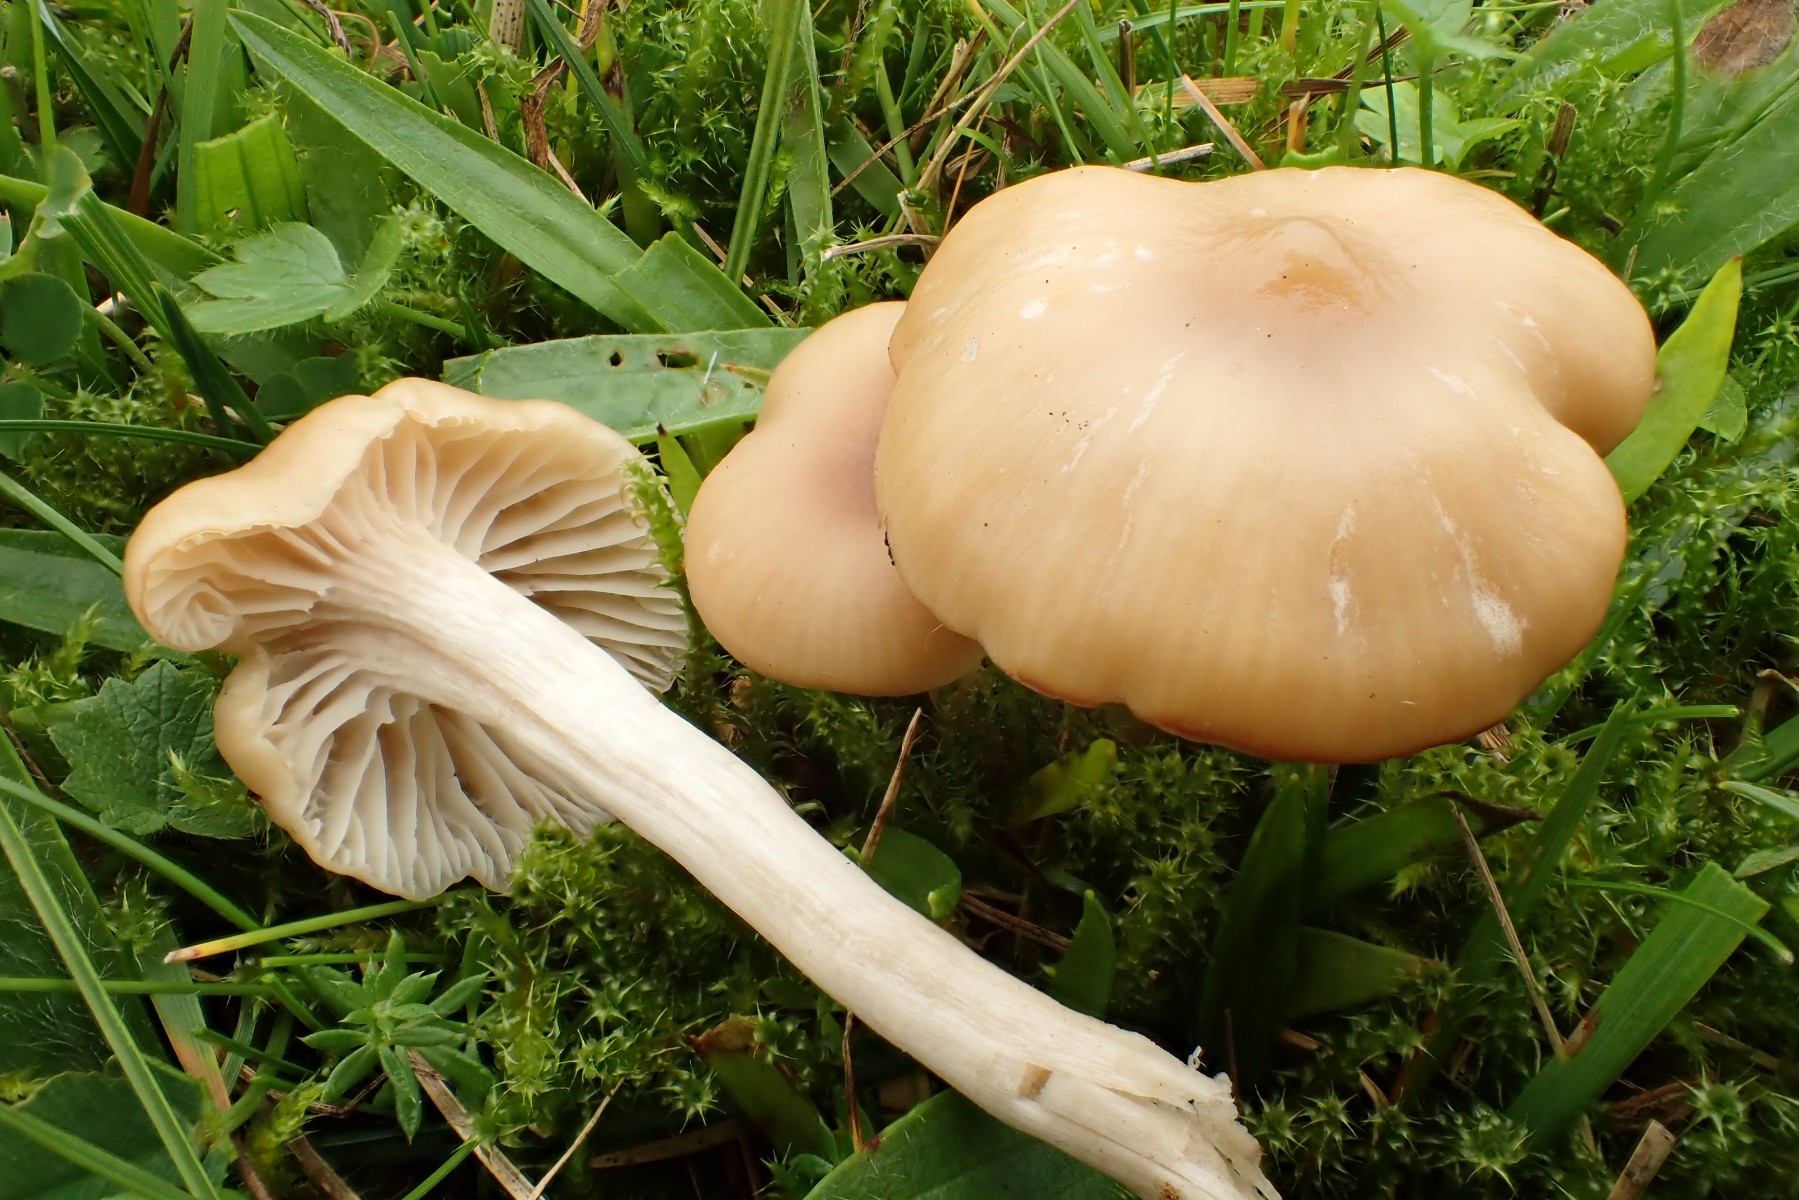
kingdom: Fungi
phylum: Basidiomycota
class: Agaricomycetes
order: Agaricales
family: Hygrophoraceae
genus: Cuphophyllus
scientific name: Cuphophyllus virgineus
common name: isabella-vokshat
